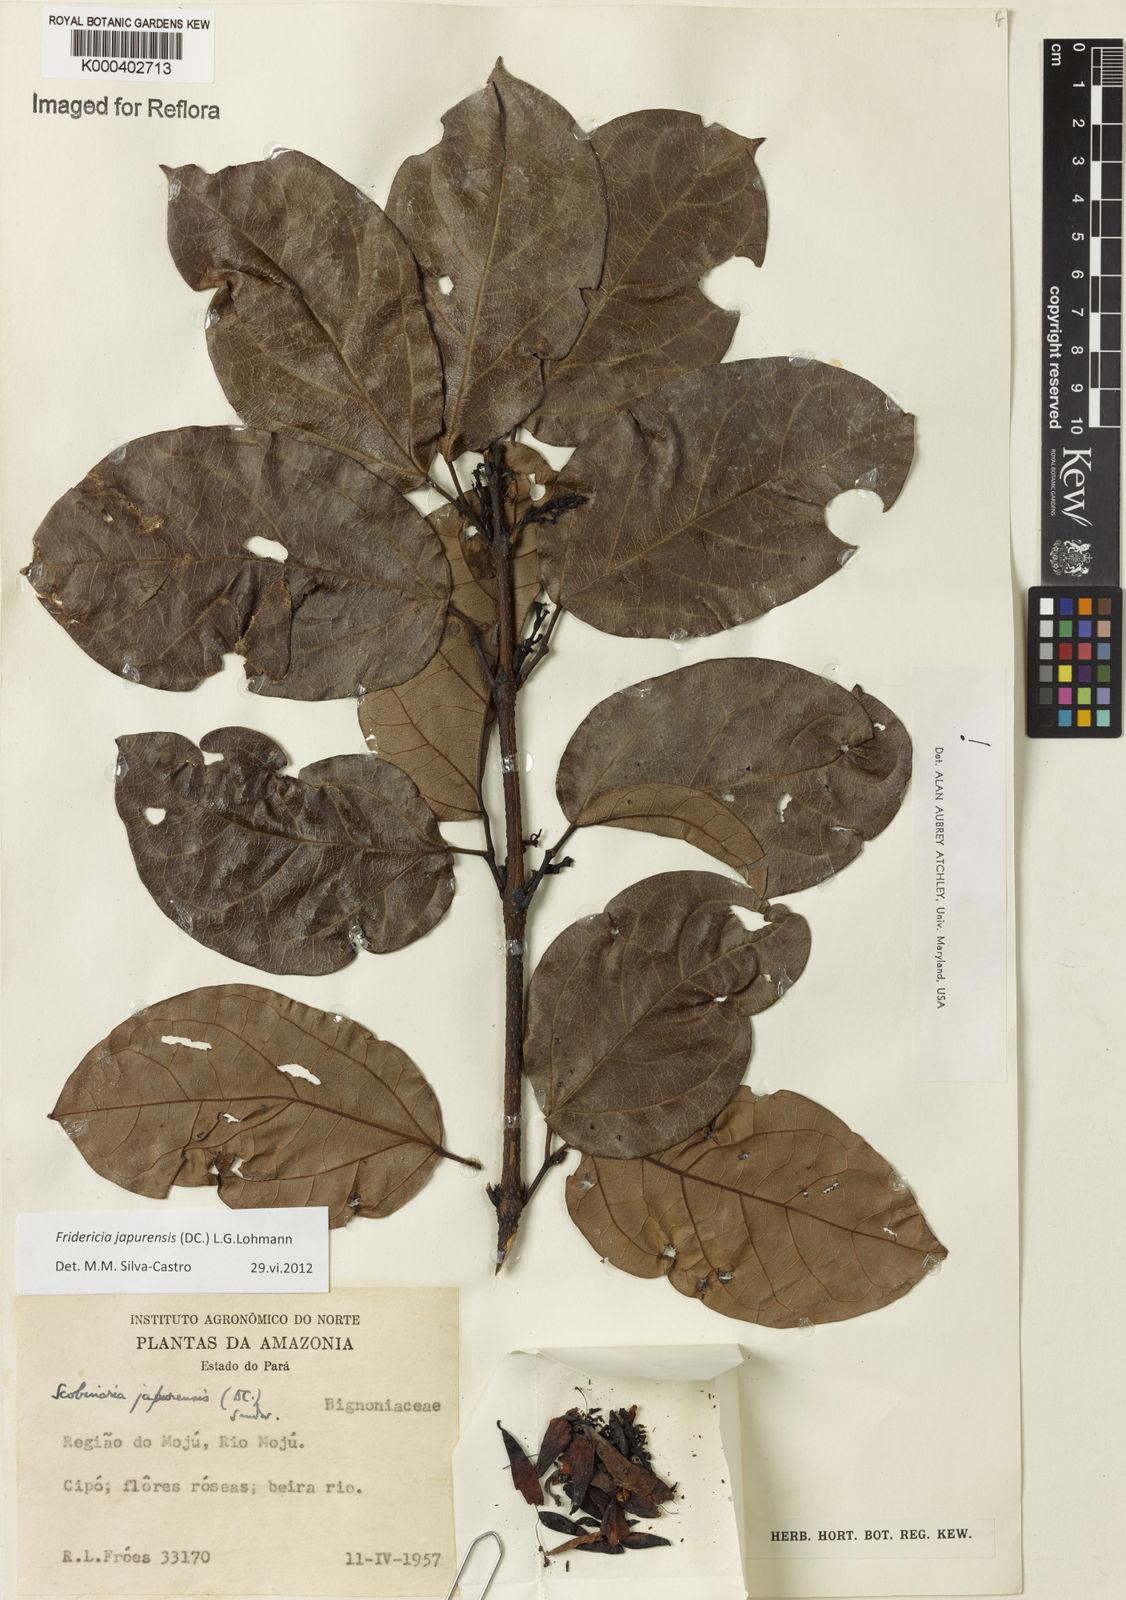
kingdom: Plantae
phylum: Tracheophyta
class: Magnoliopsida
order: Lamiales
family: Bignoniaceae
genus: Fridericia
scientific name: Fridericia japurensis
